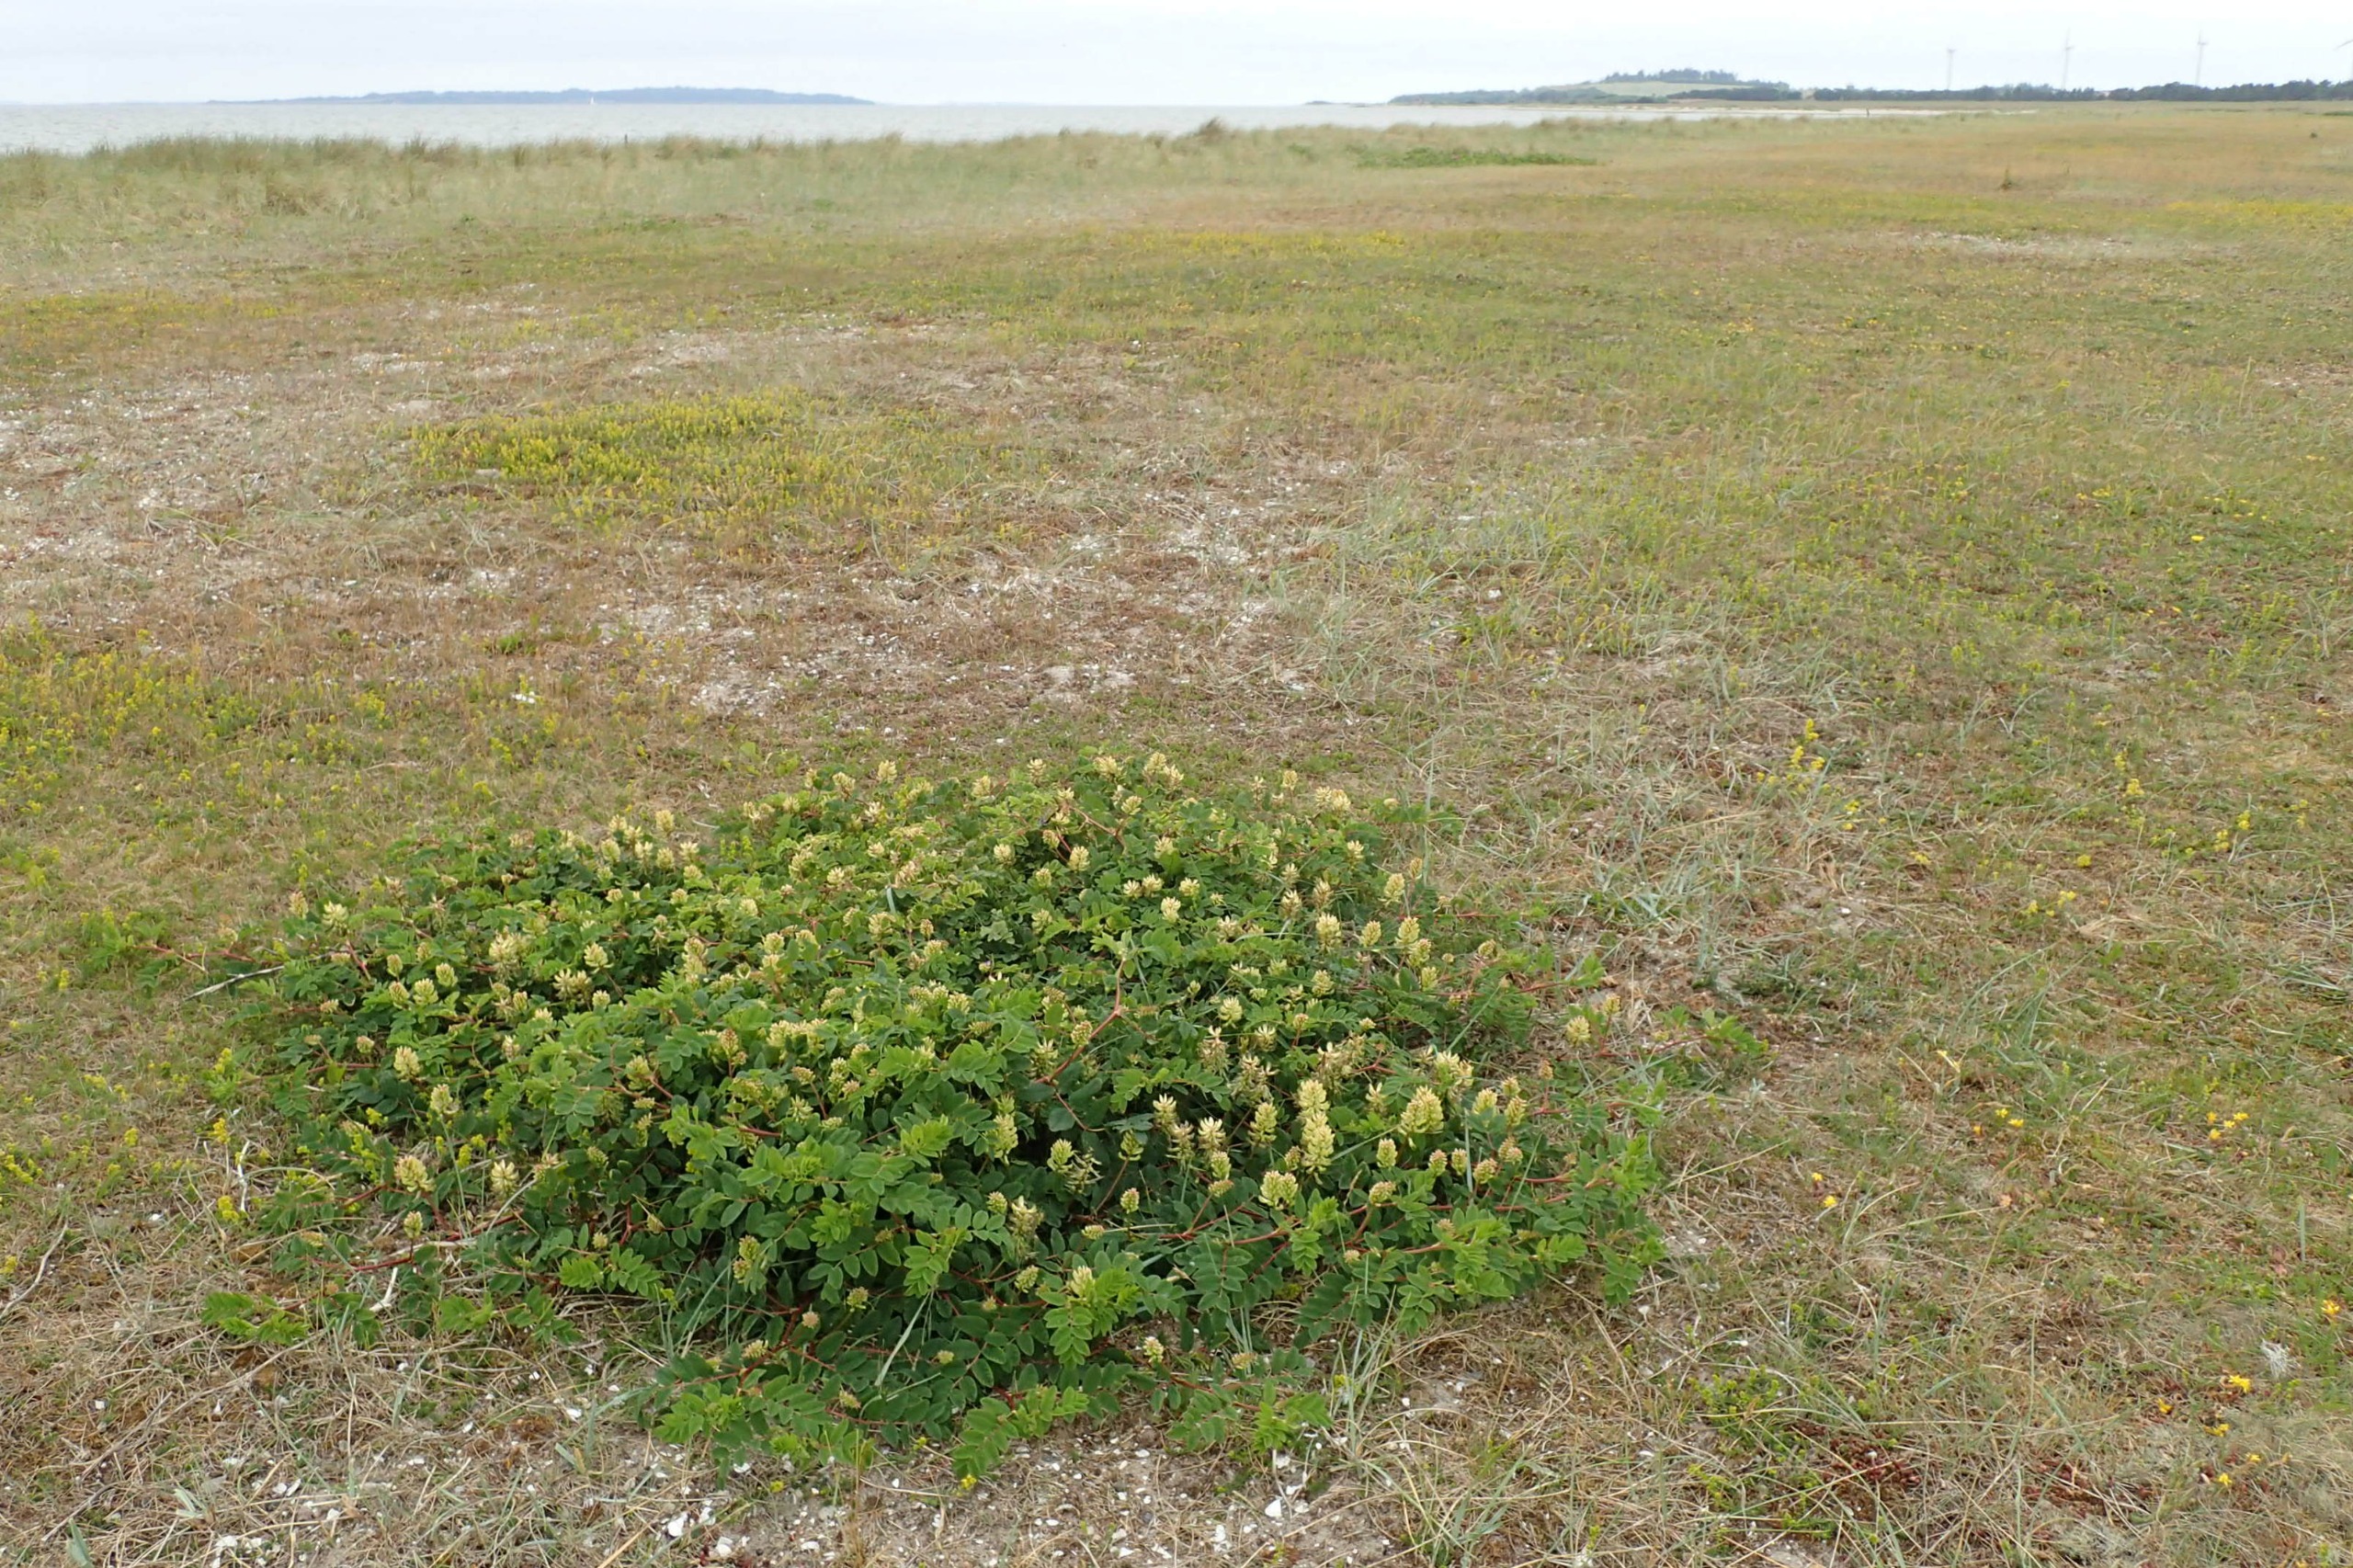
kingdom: Plantae
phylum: Tracheophyta
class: Magnoliopsida
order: Fabales
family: Fabaceae
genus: Astragalus
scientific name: Astragalus glycyphyllos
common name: Sød astragel
